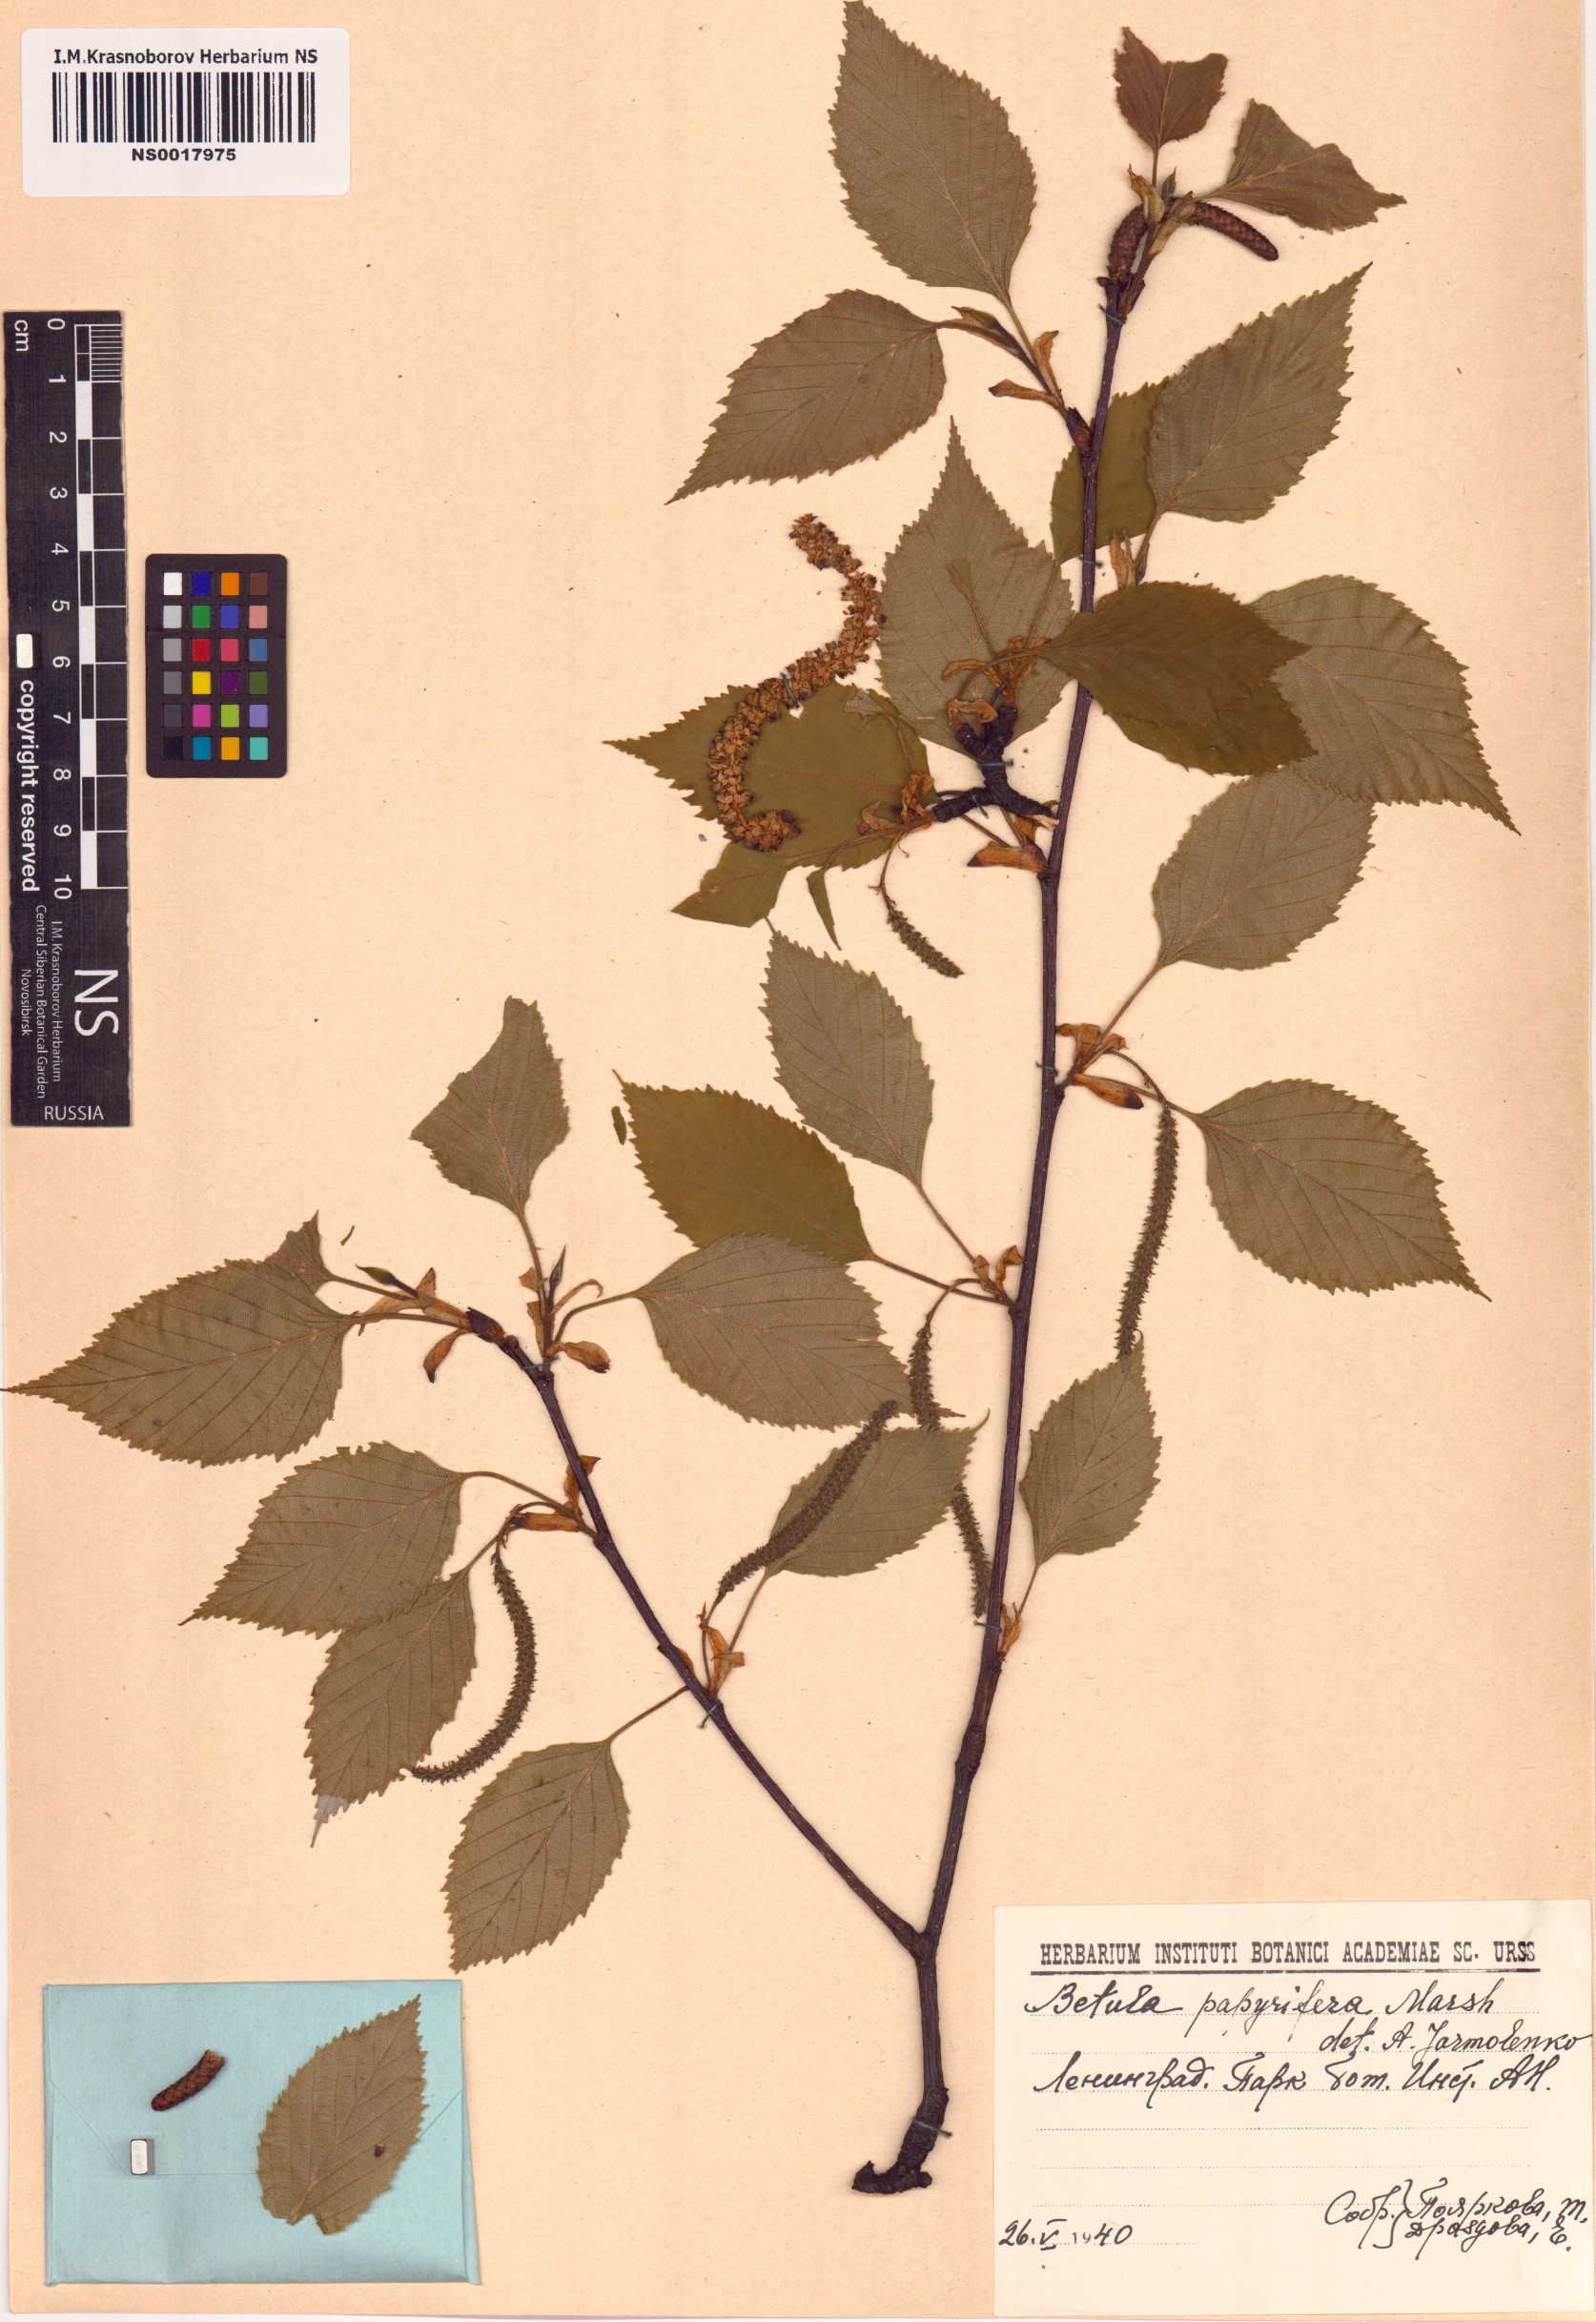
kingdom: Plantae
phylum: Tracheophyta
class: Magnoliopsida
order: Fagales
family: Betulaceae
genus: Betula
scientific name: Betula papyrifera
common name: Paper birch
